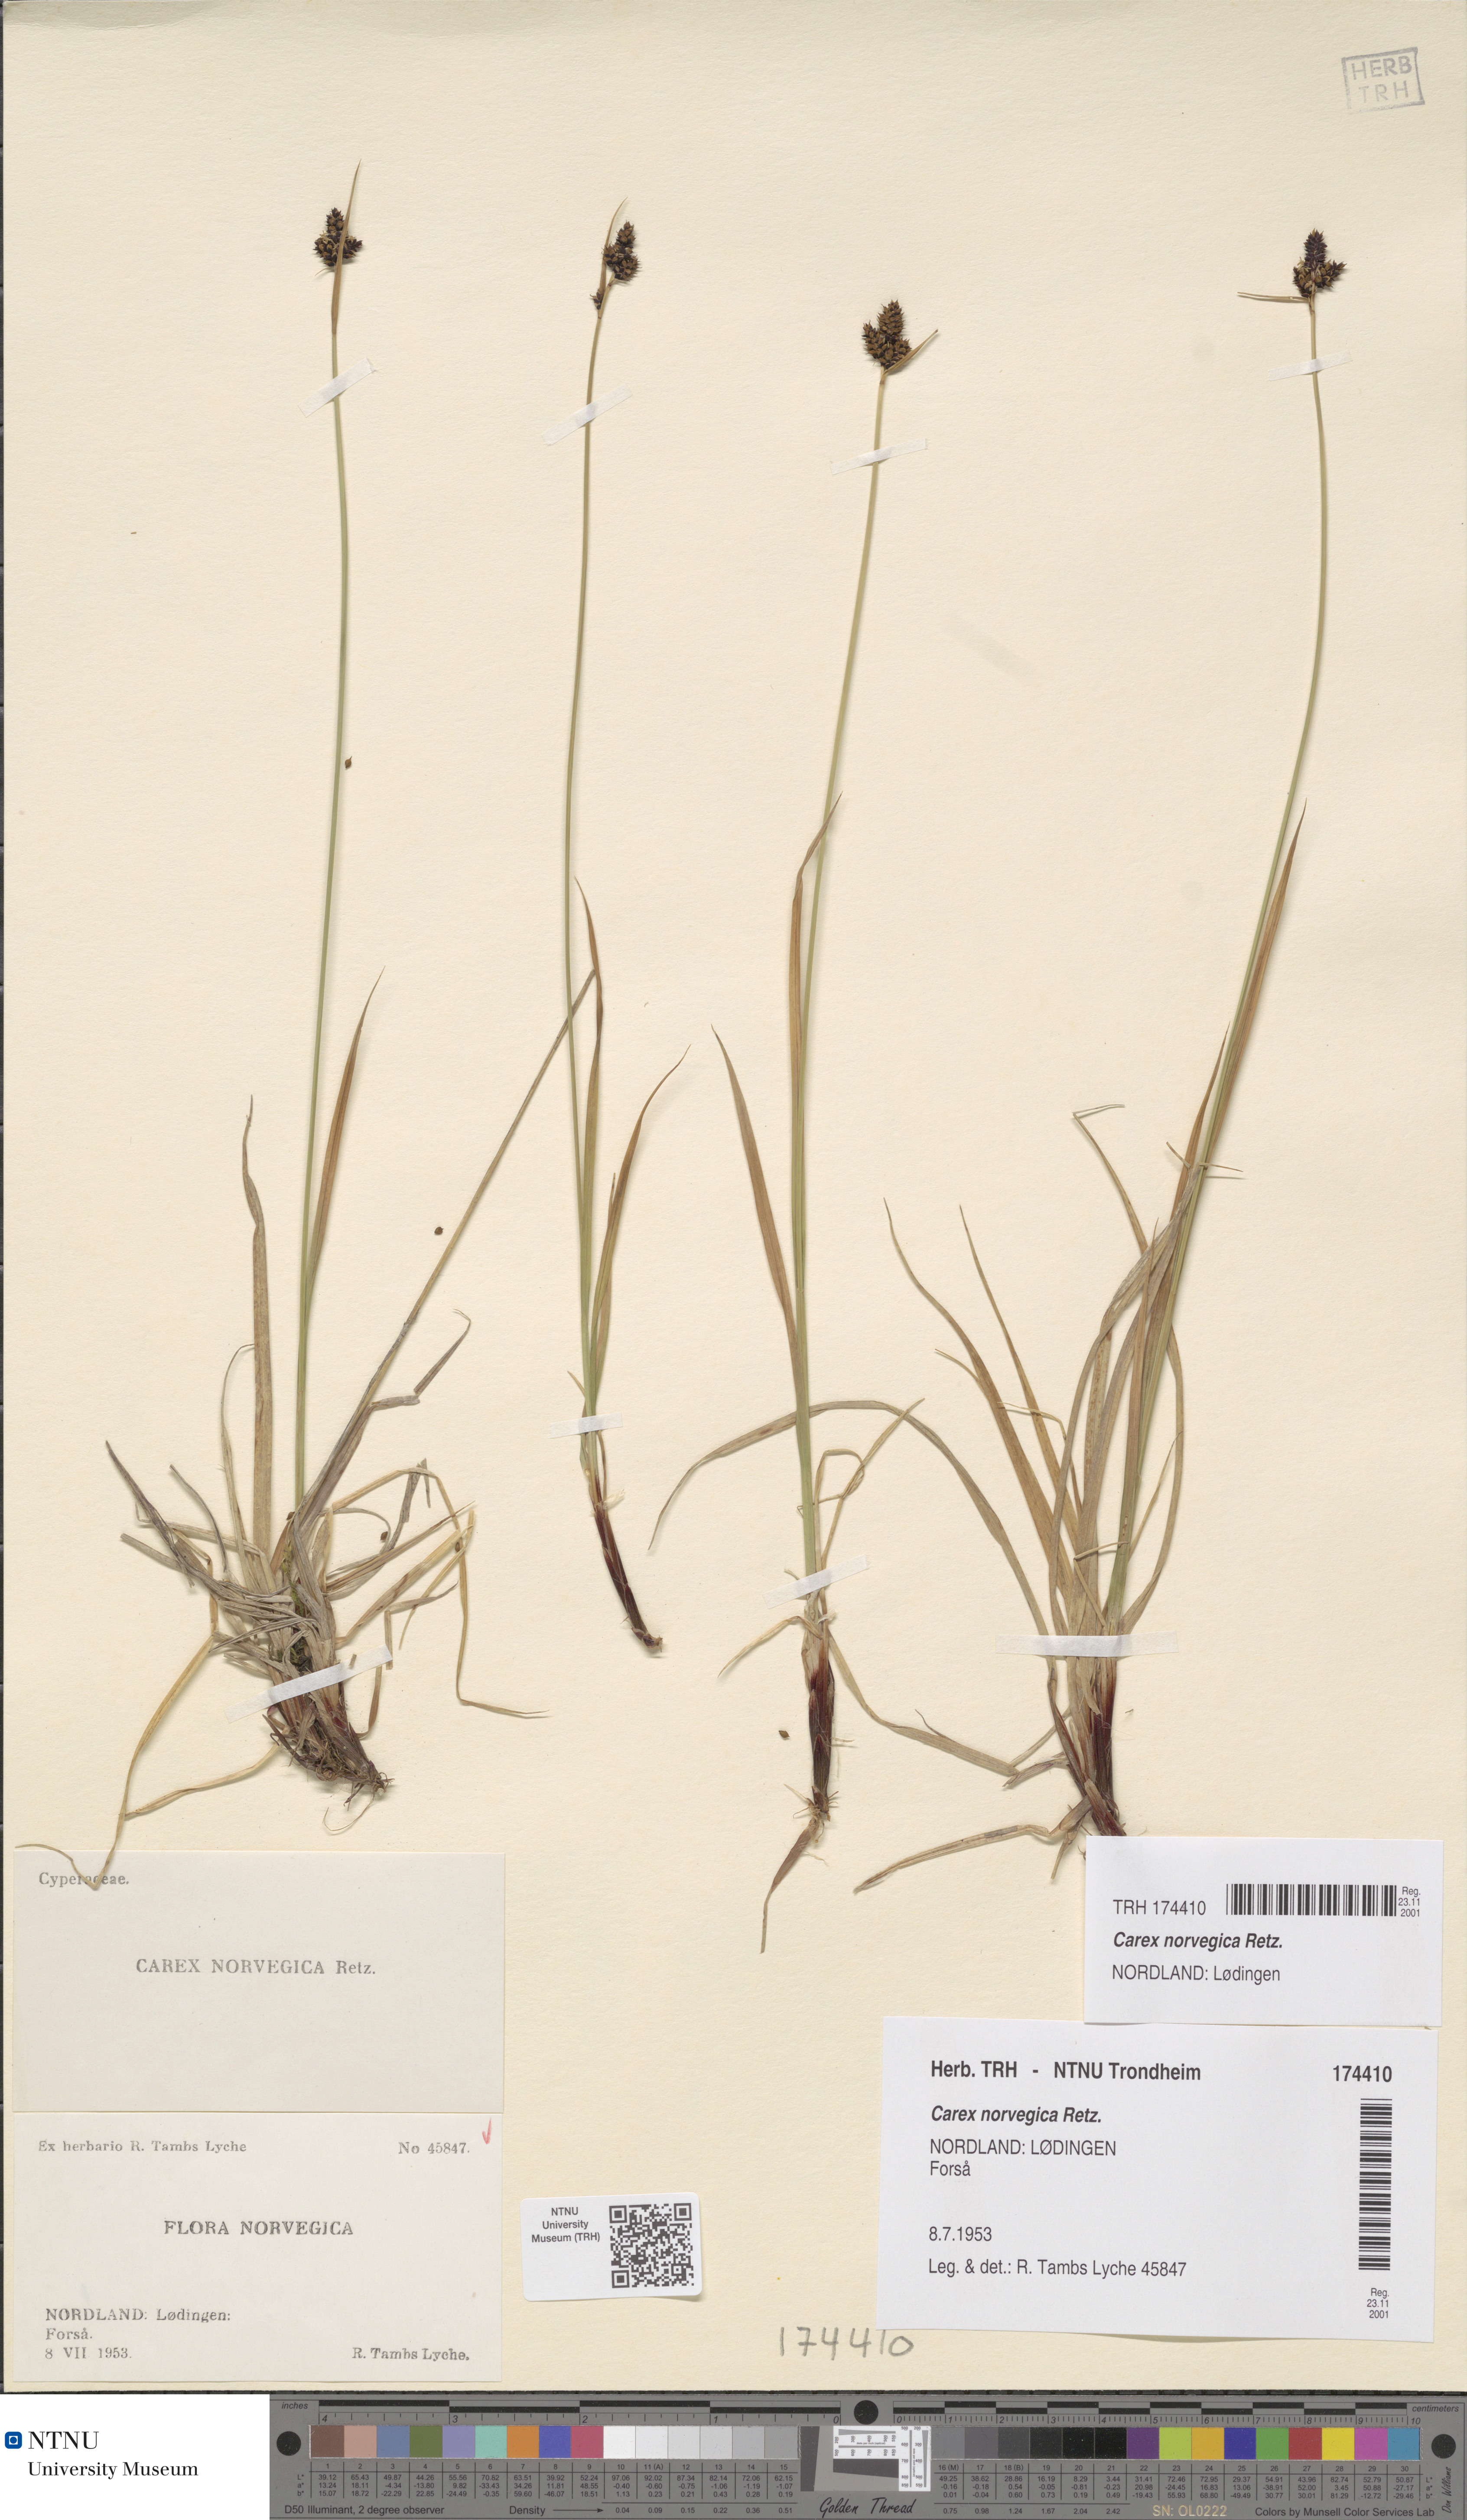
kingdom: Plantae
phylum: Tracheophyta
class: Liliopsida
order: Poales
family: Cyperaceae
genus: Carex
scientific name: Carex norvegica
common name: Close-headed alpine-sedge
